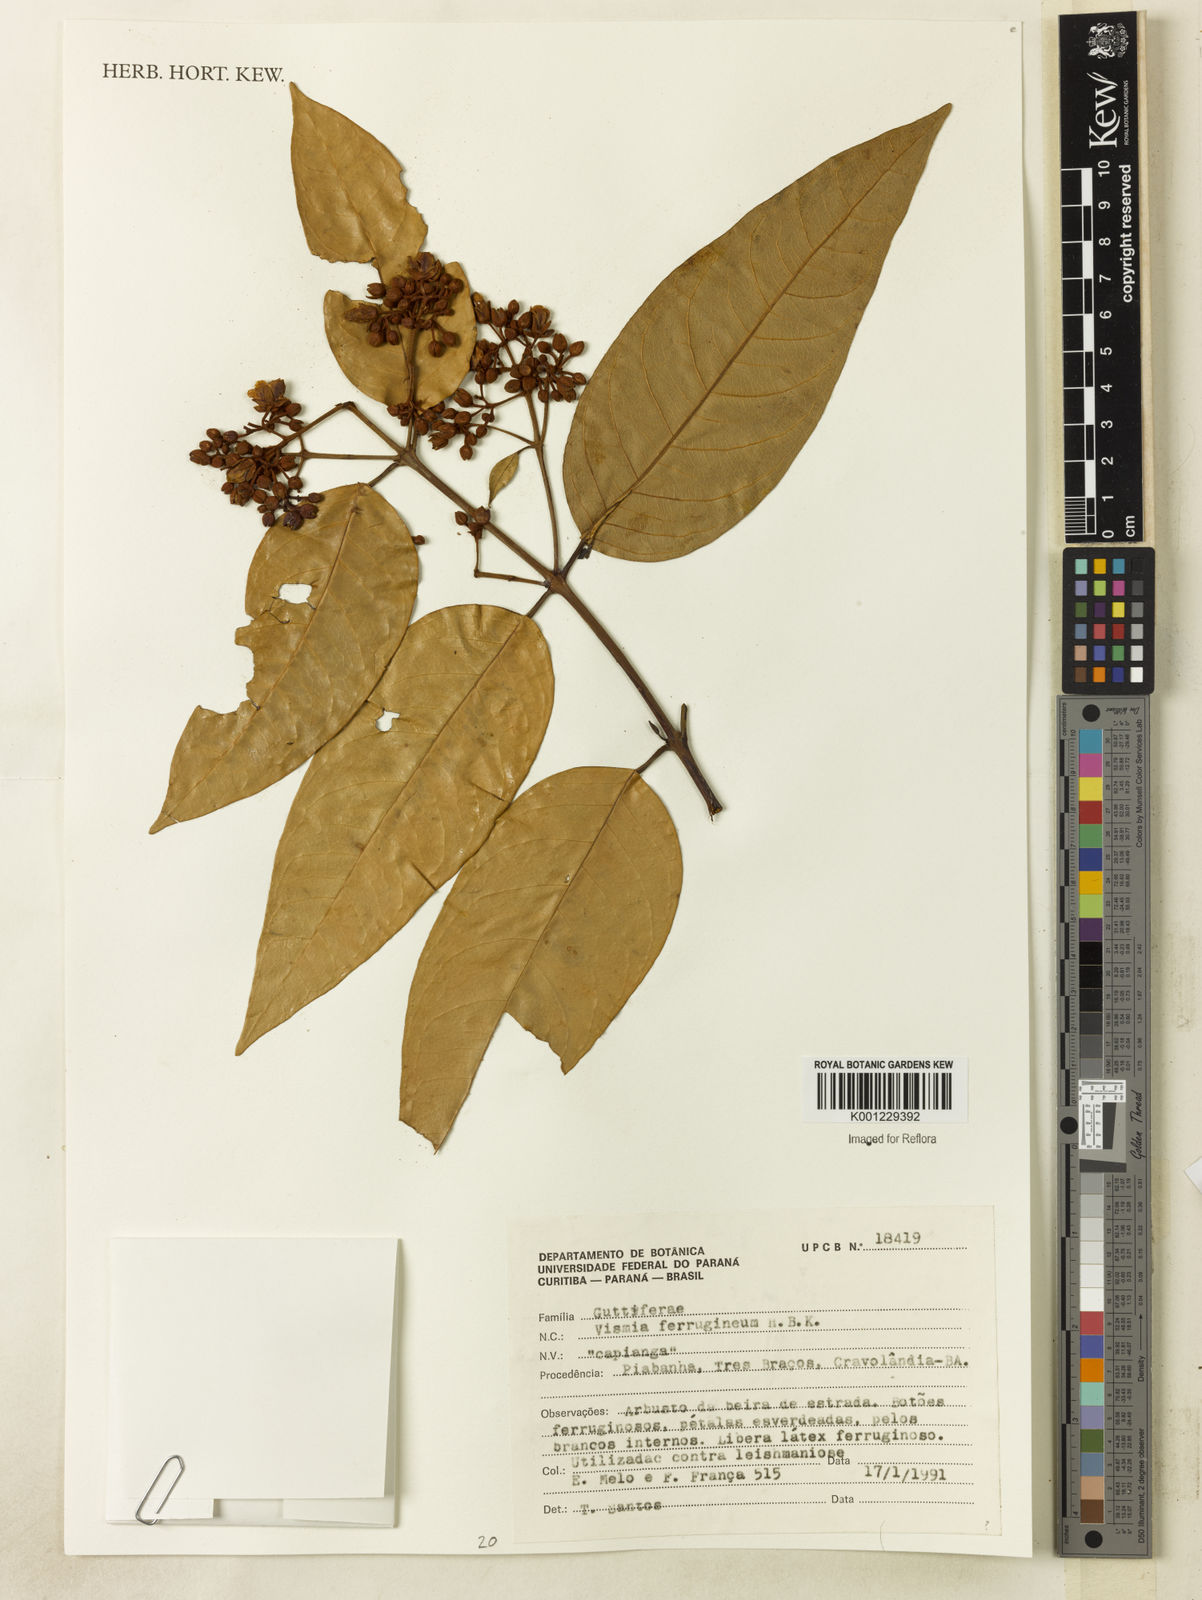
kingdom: Plantae
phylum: Tracheophyta
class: Magnoliopsida
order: Malpighiales
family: Hypericaceae
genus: Vismia
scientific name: Vismia ferruginea
